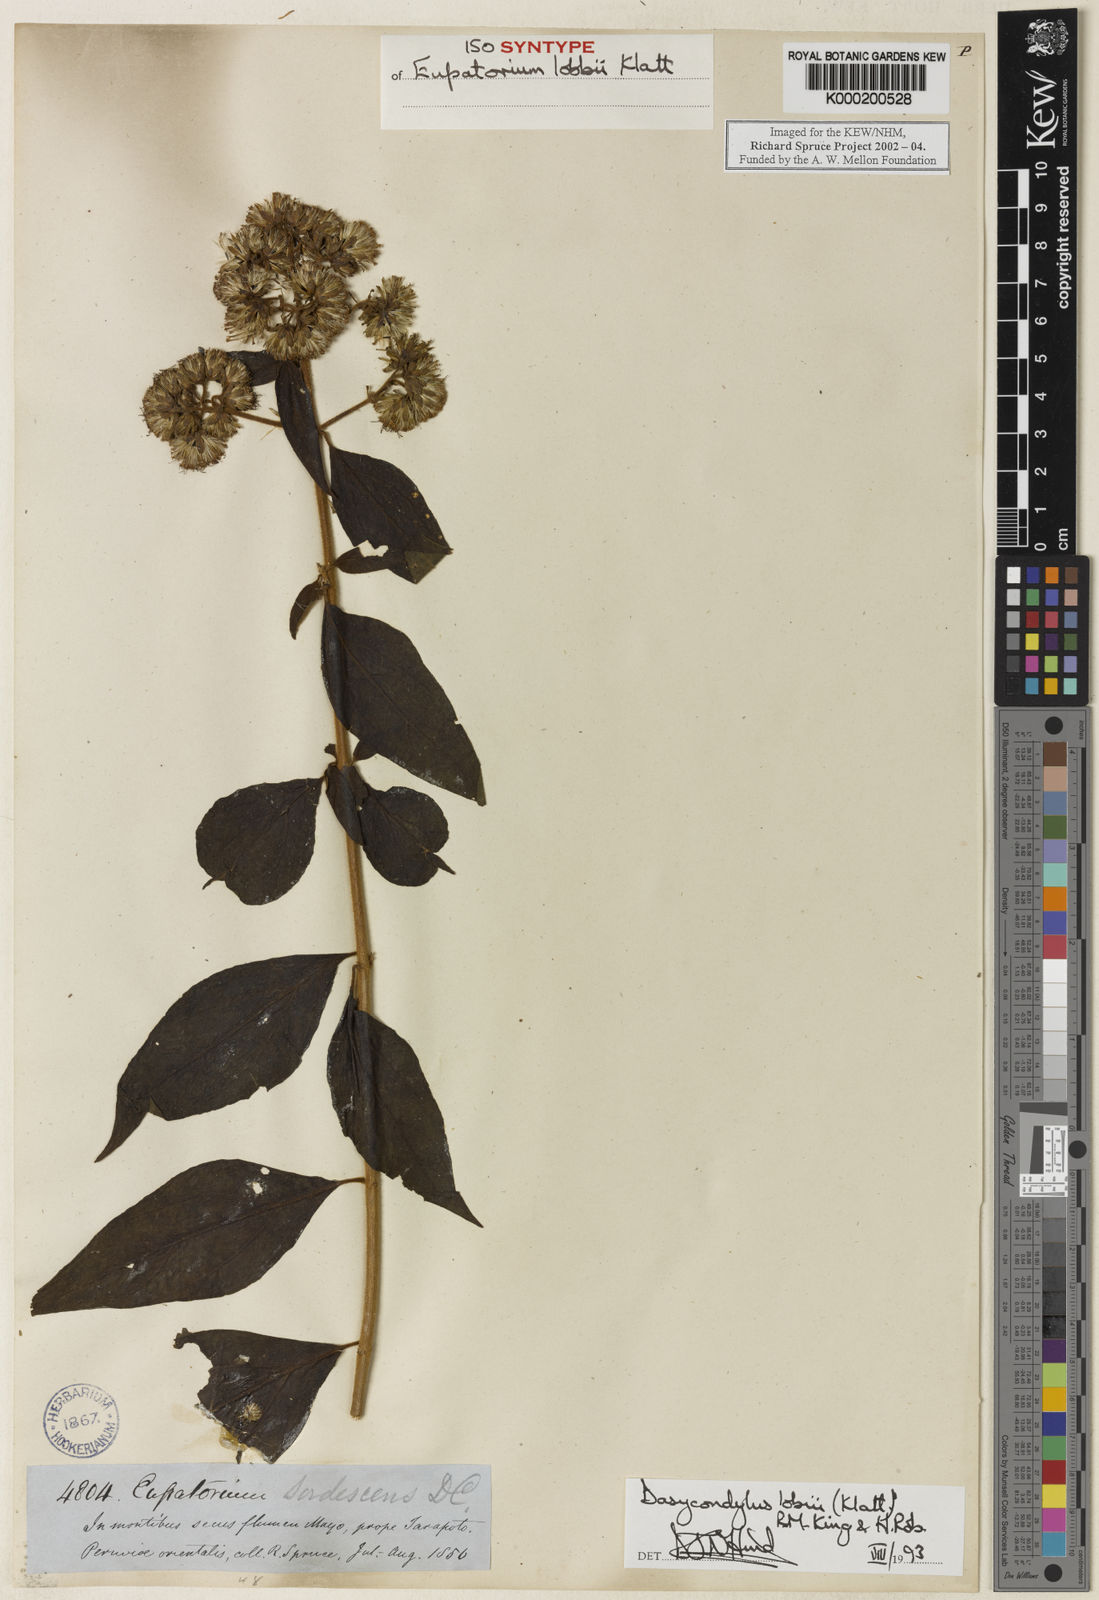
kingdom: Plantae
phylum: Tracheophyta
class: Magnoliopsida
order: Asterales
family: Asteraceae
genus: Dasycondylus
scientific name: Dasycondylus lobbii
